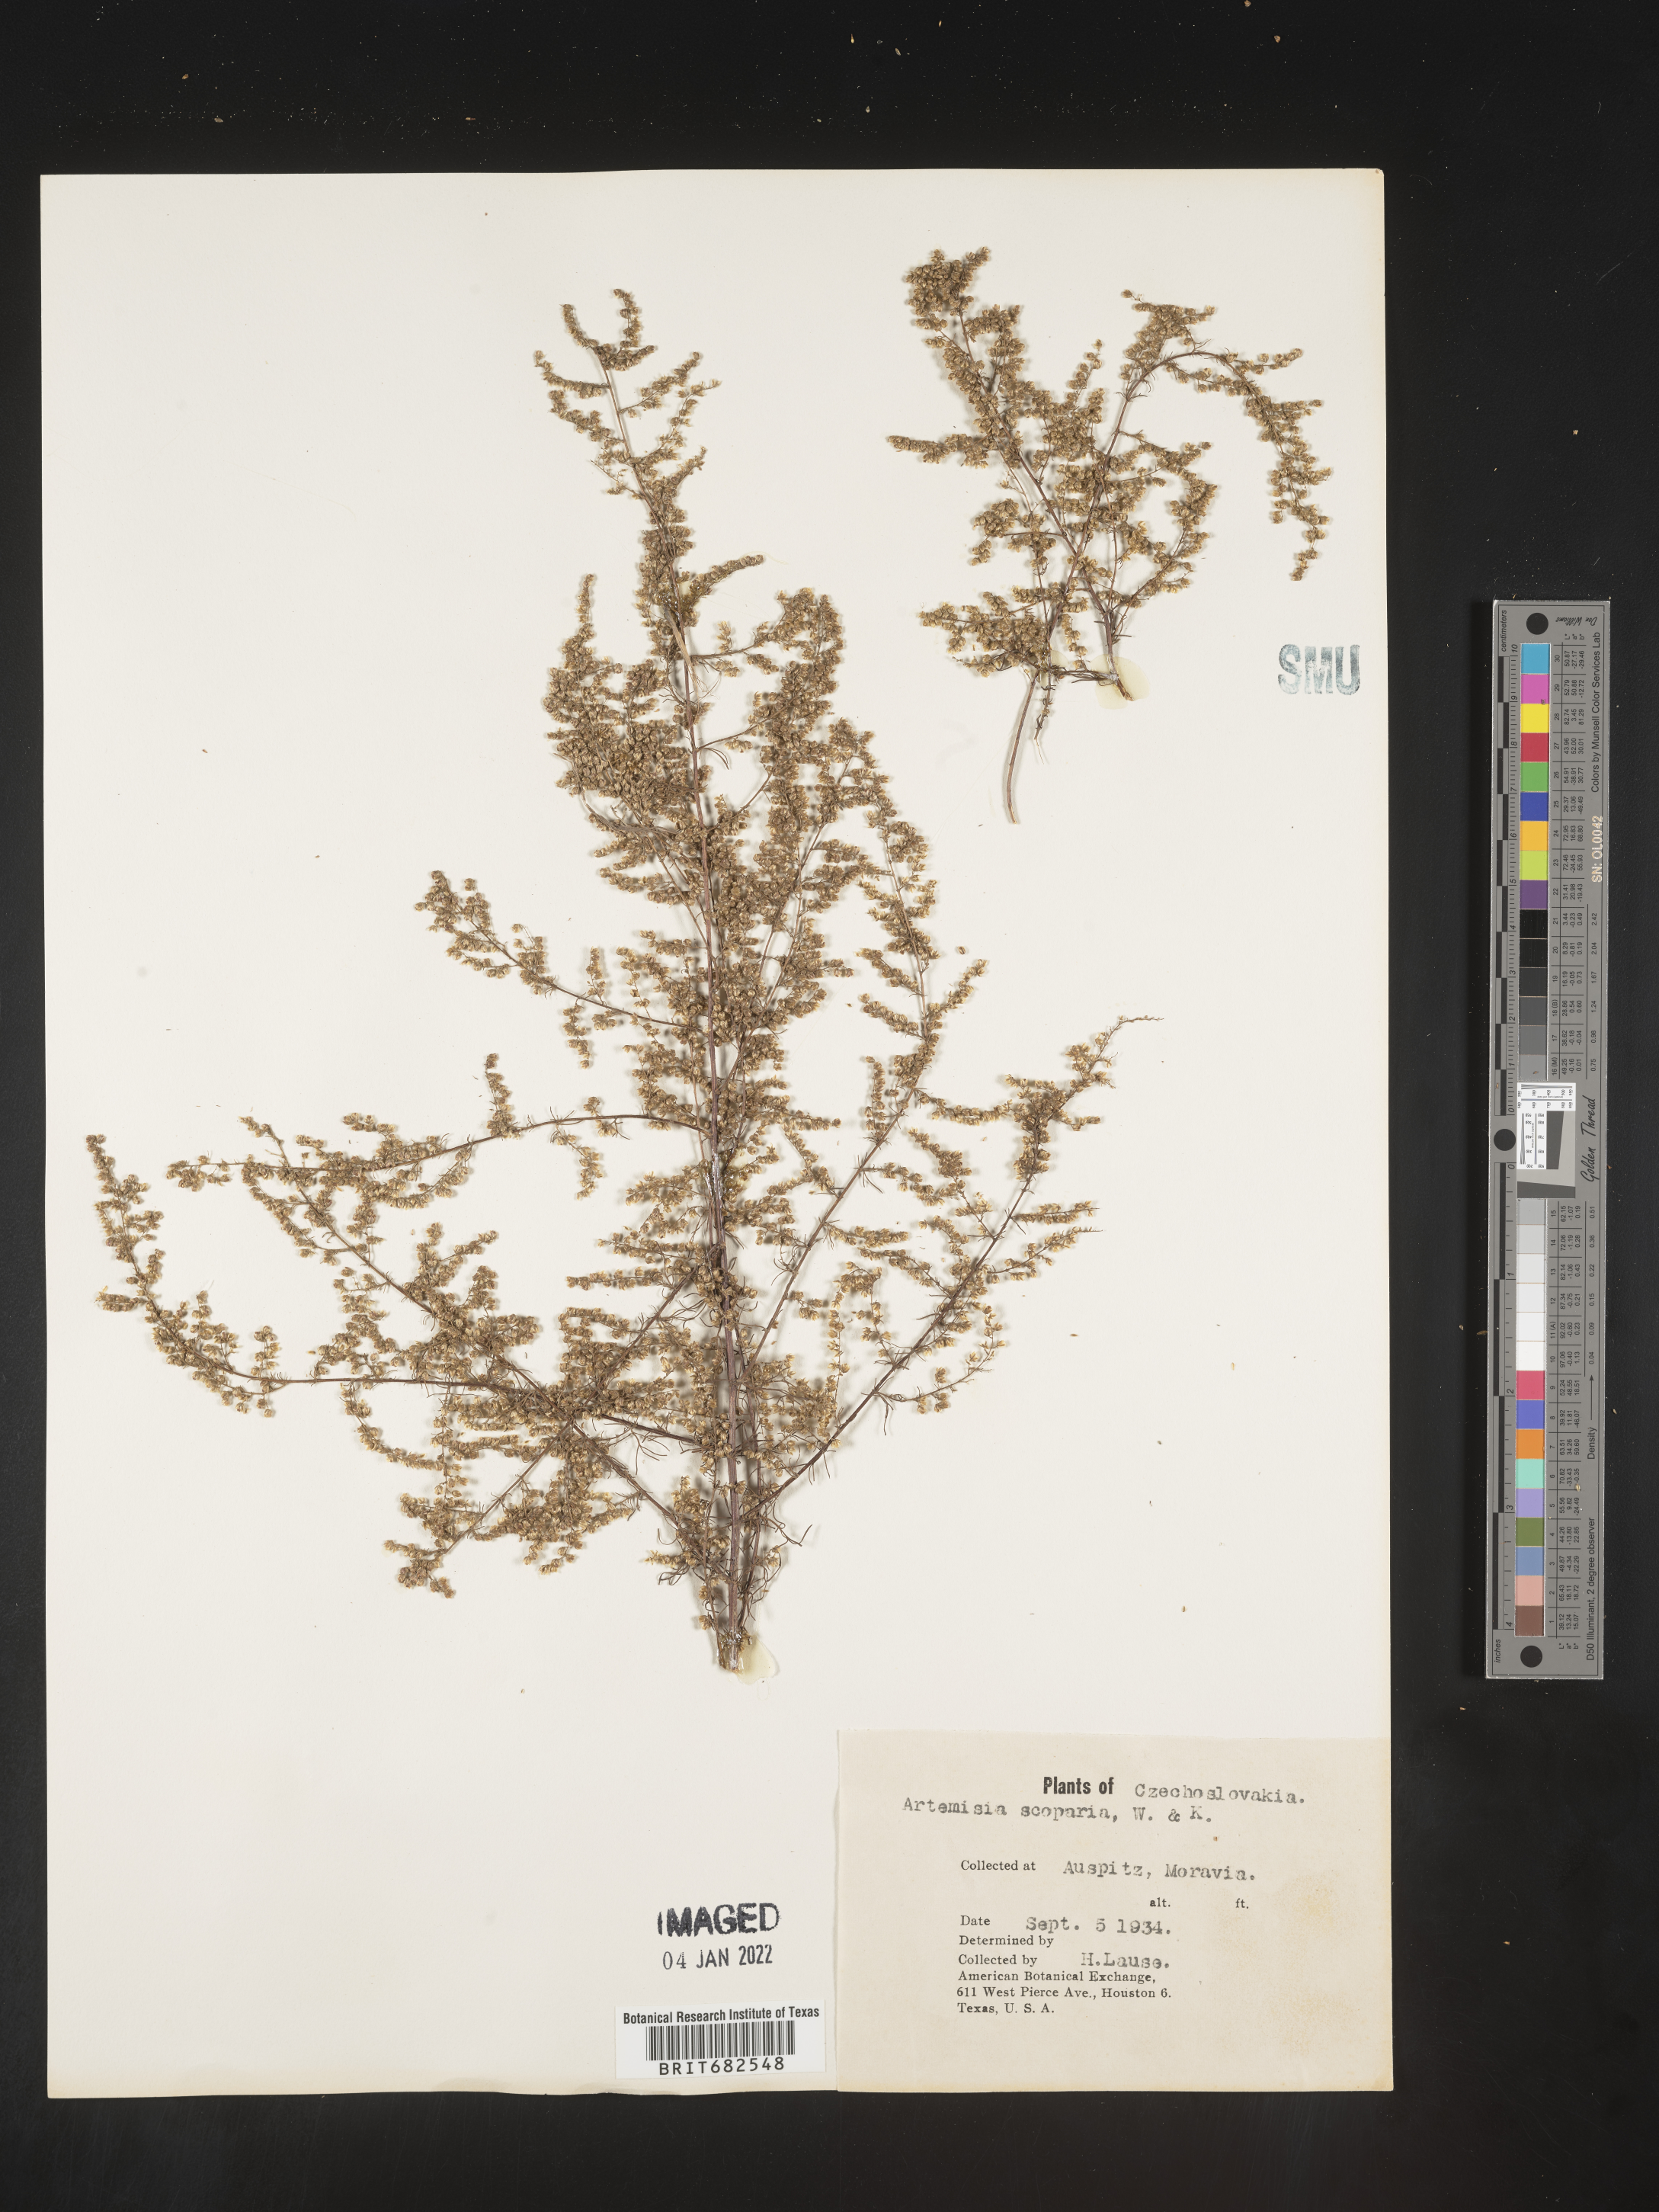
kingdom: Plantae
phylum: Tracheophyta
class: Magnoliopsida
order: Asterales
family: Asteraceae
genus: Artemisia
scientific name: Artemisia
